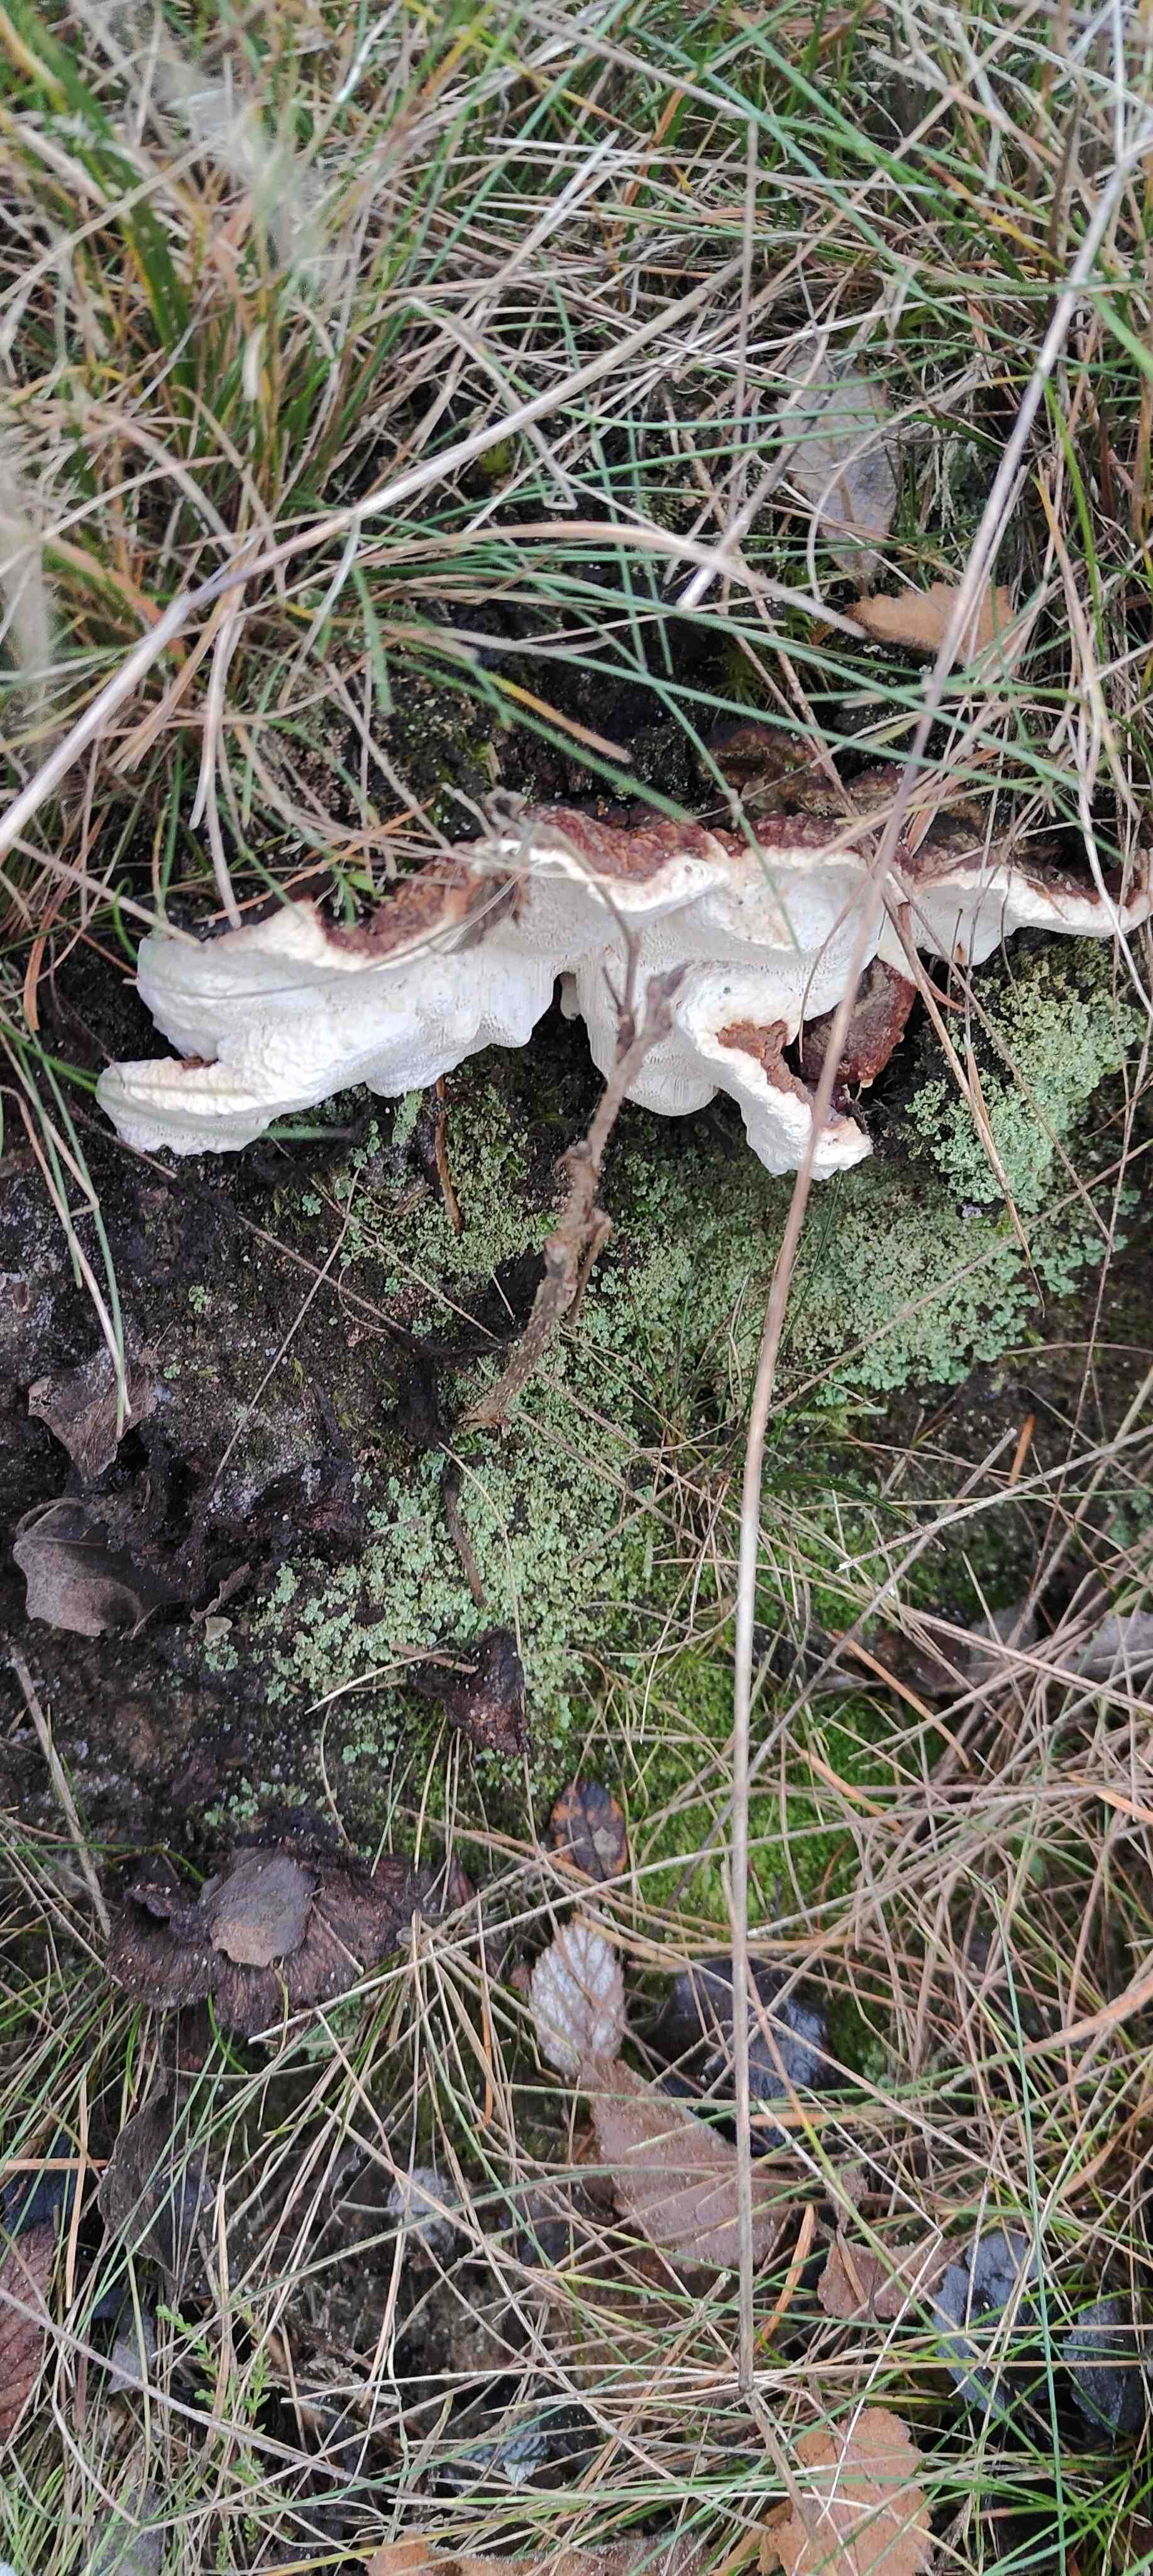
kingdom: Fungi
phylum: Basidiomycota
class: Agaricomycetes
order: Russulales
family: Bondarzewiaceae
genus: Heterobasidion
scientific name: Heterobasidion annosum
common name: almindelig rodfordærver
